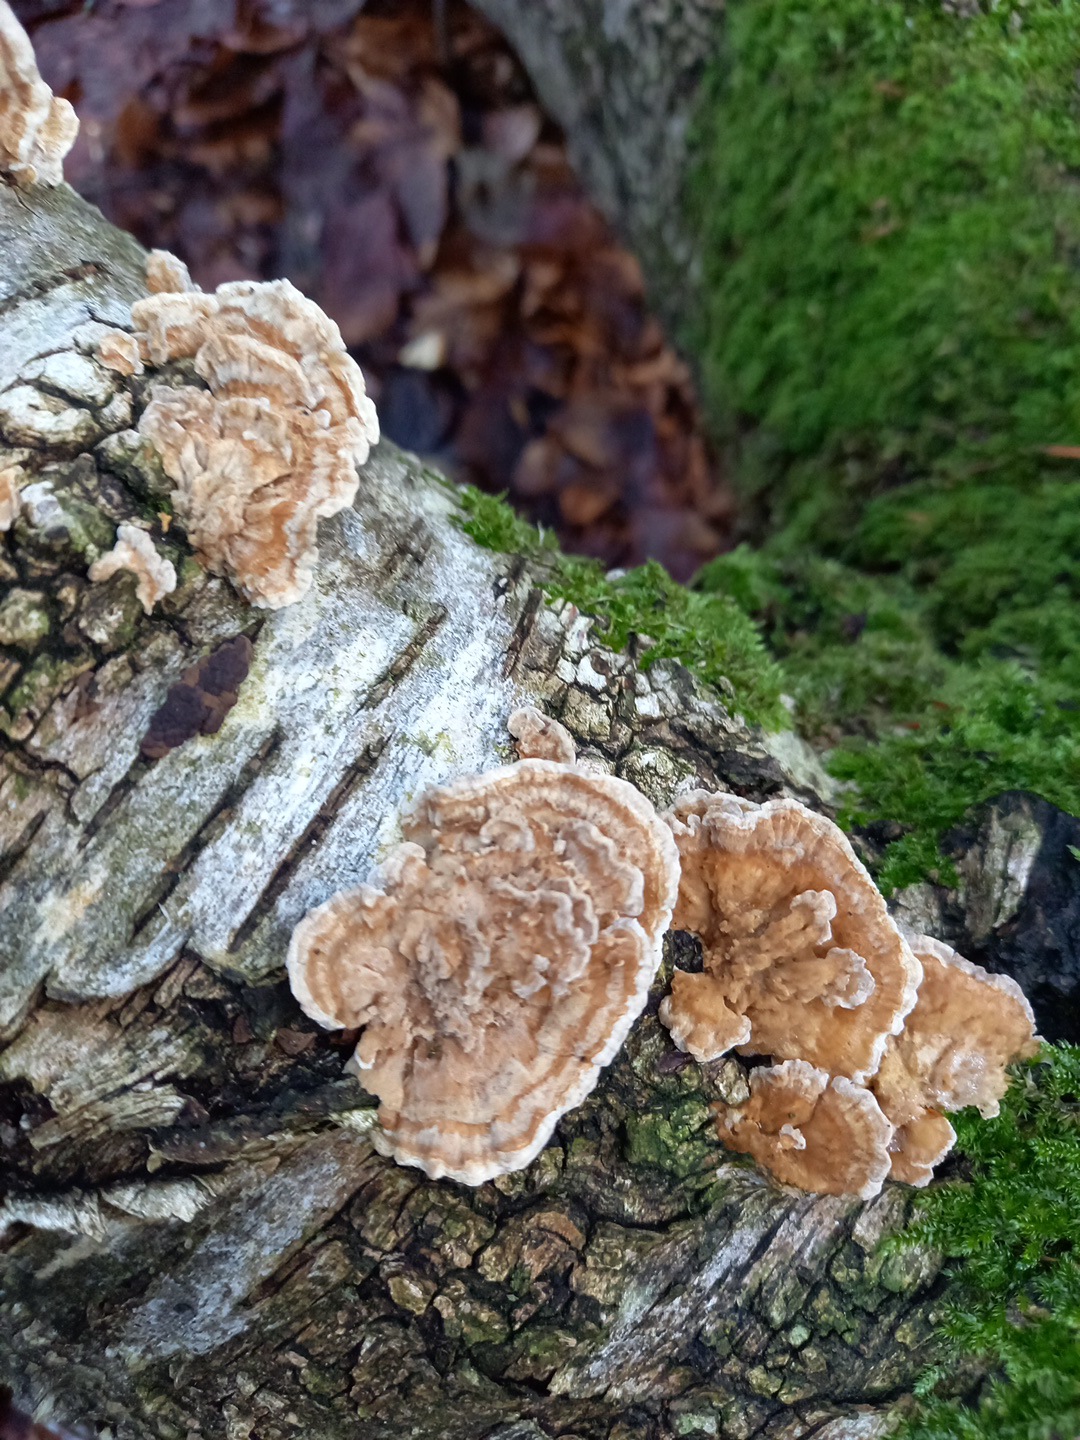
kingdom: Fungi
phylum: Basidiomycota
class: Agaricomycetes
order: Polyporales
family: Polyporaceae
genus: Trametes
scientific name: Trametes ochracea
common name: bæltet læderporesvamp
